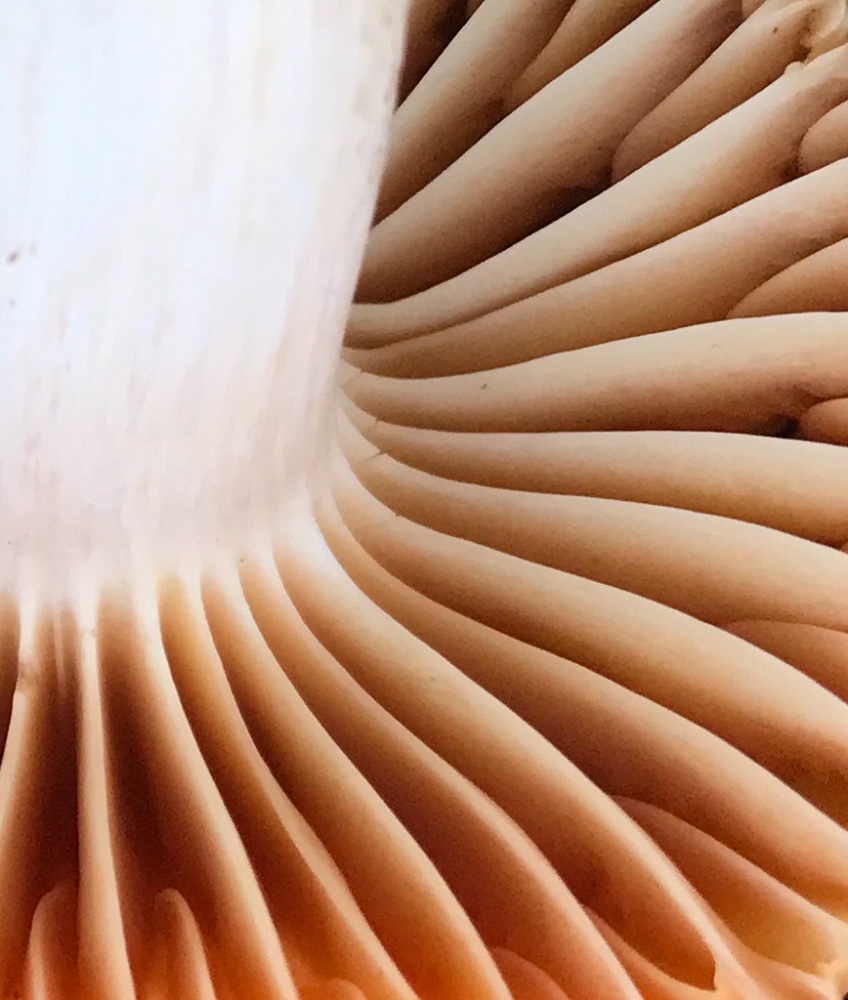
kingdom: Fungi
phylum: Basidiomycota
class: Agaricomycetes
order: Agaricales
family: Hygrophoraceae
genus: Cuphophyllus
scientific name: Cuphophyllus pratensis
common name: eng-vokshat
